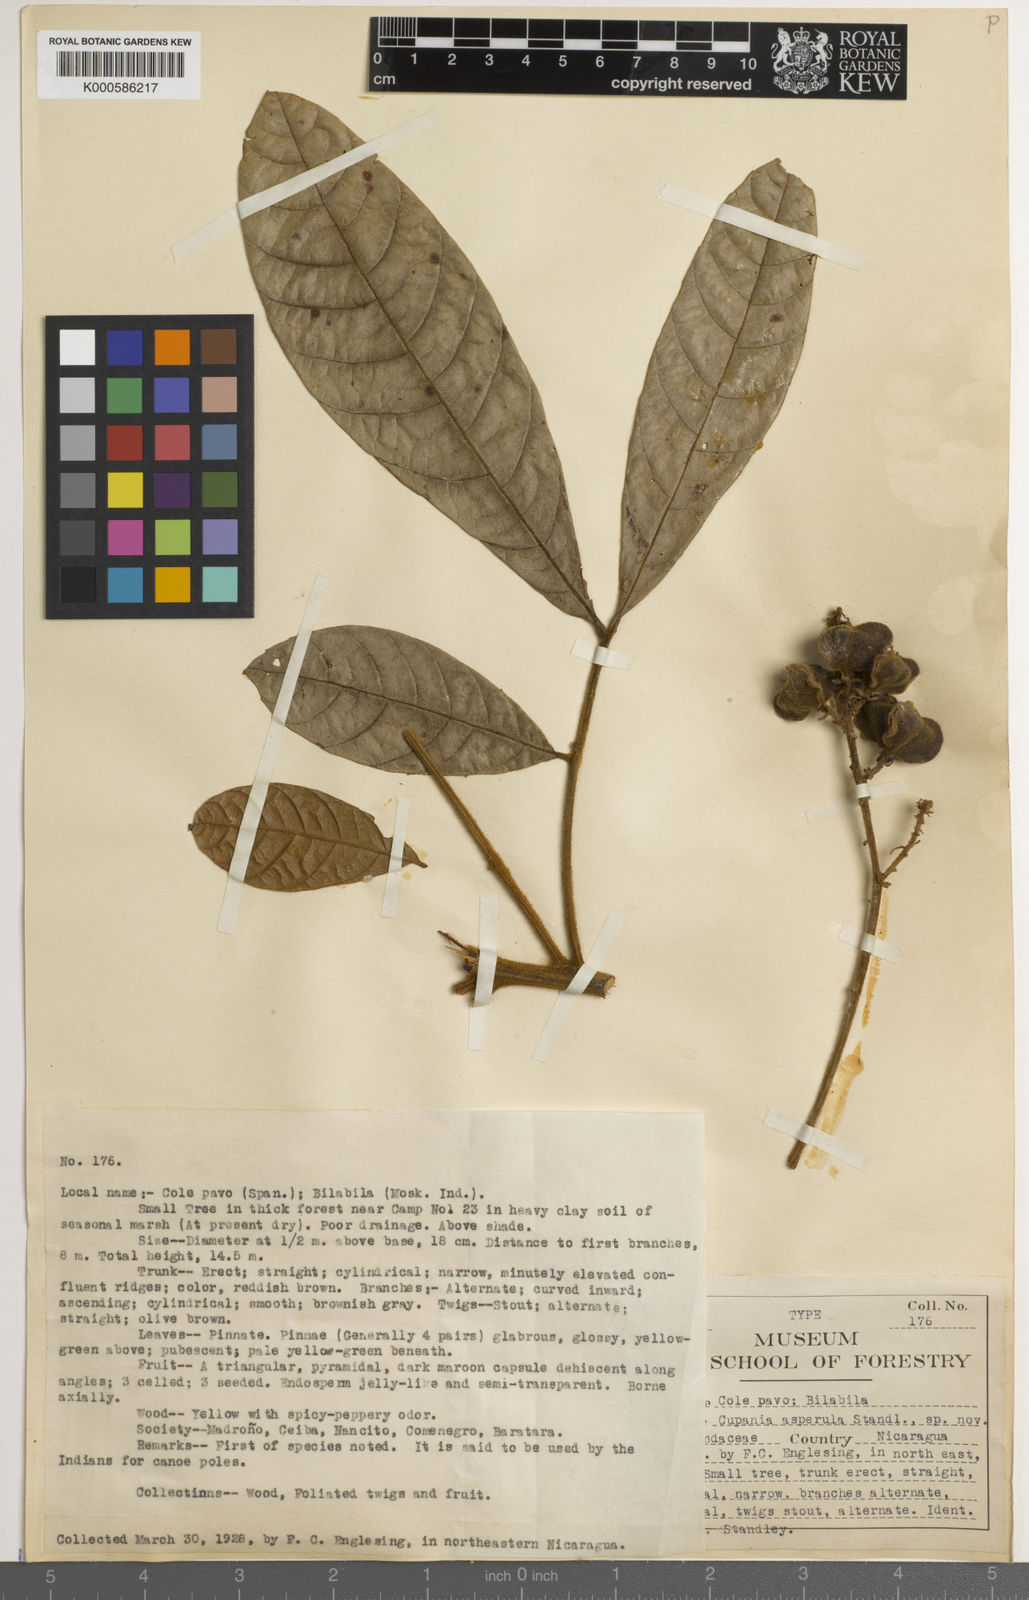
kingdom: Plantae
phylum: Tracheophyta
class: Magnoliopsida
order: Sapindales
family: Sapindaceae
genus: Cupania
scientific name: Cupania rufescens
